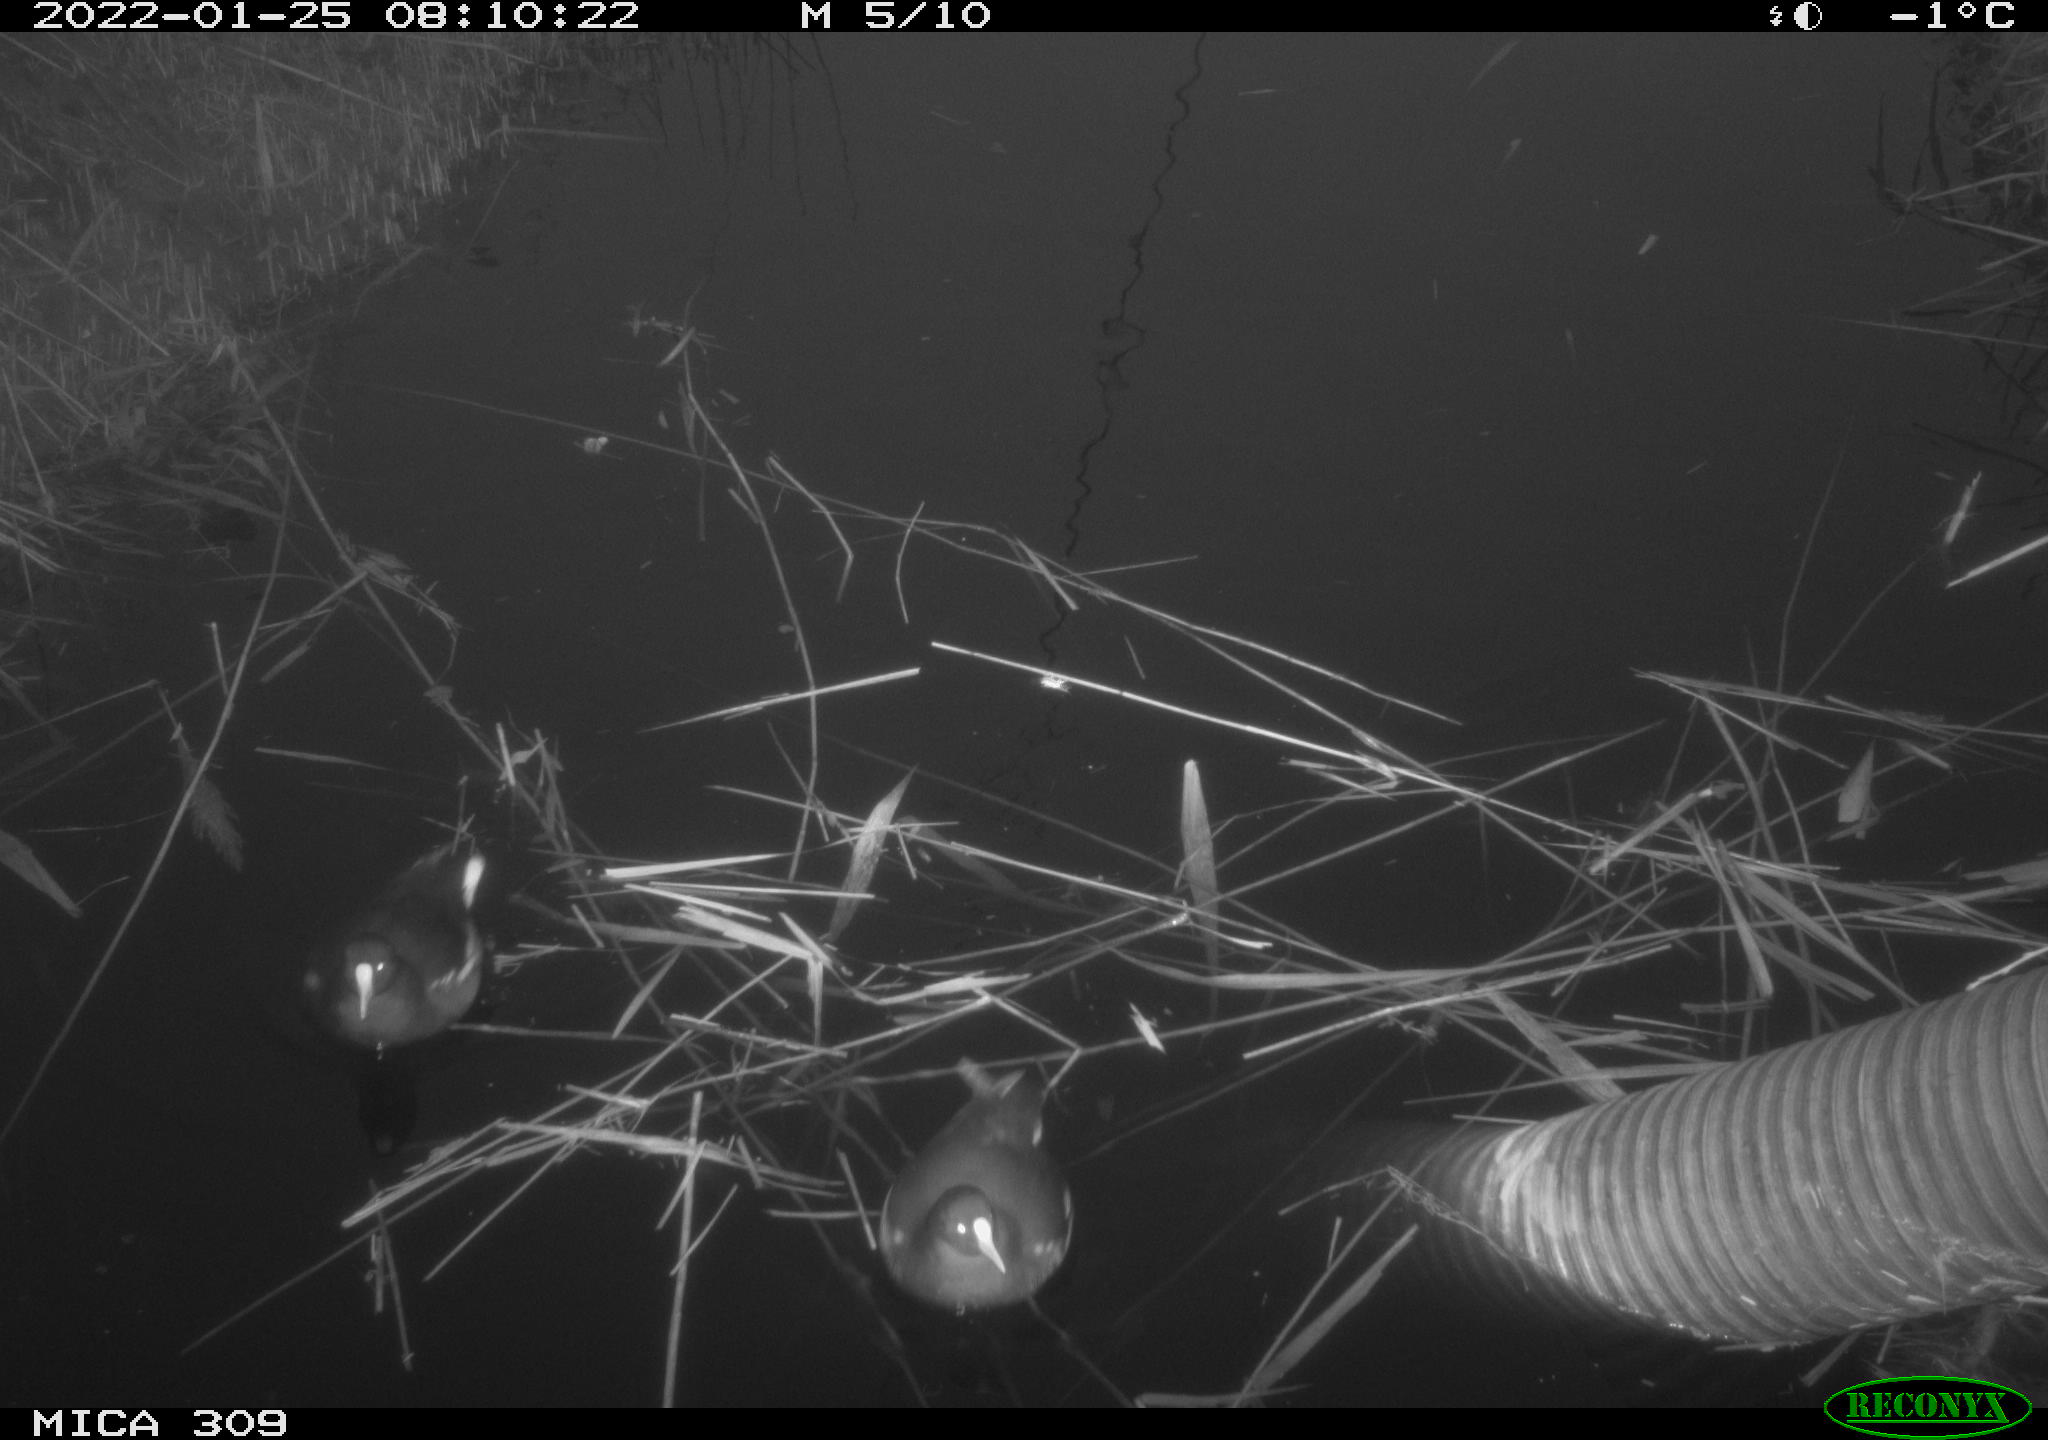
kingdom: Animalia
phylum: Chordata
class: Aves
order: Gruiformes
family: Rallidae
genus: Fulica
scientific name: Fulica atra
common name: Eurasian coot
